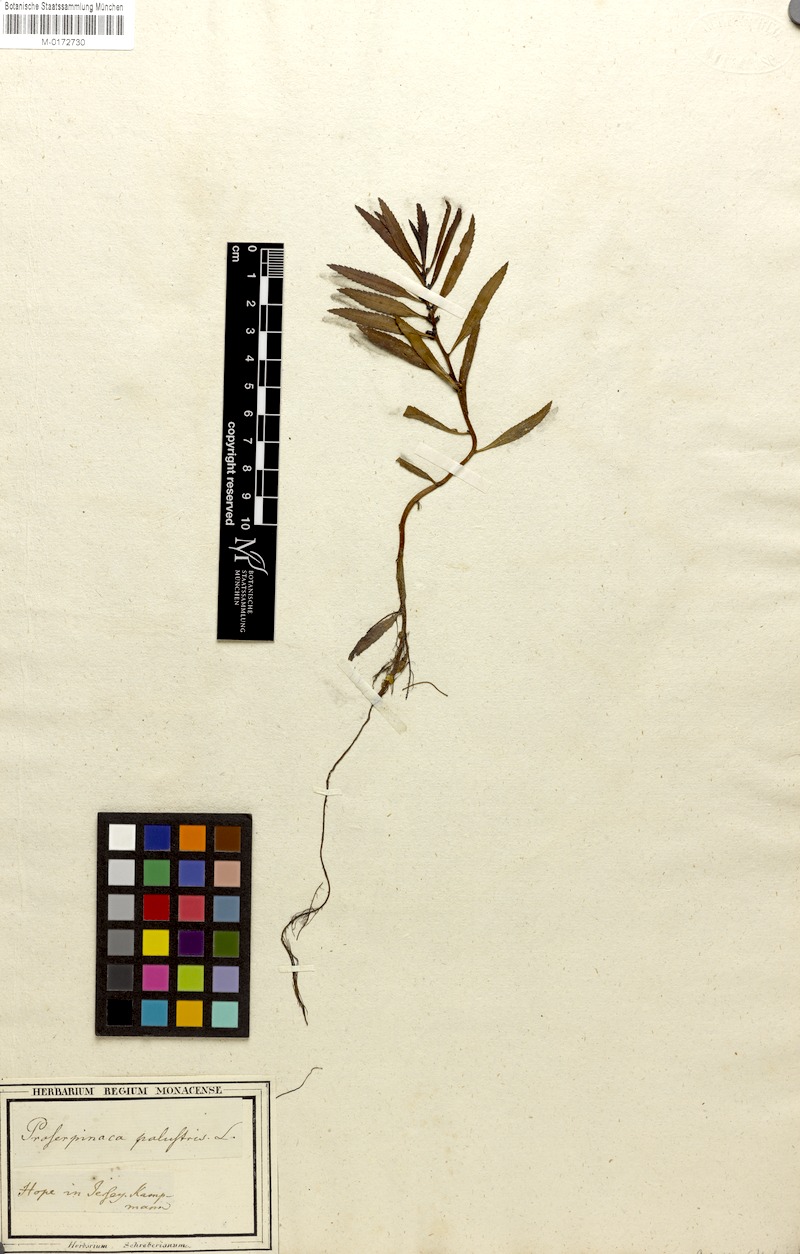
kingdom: Plantae
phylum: Tracheophyta
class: Magnoliopsida
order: Saxifragales
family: Haloragaceae
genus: Proserpinaca
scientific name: Proserpinaca palustris
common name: Marsh mermaidweed
